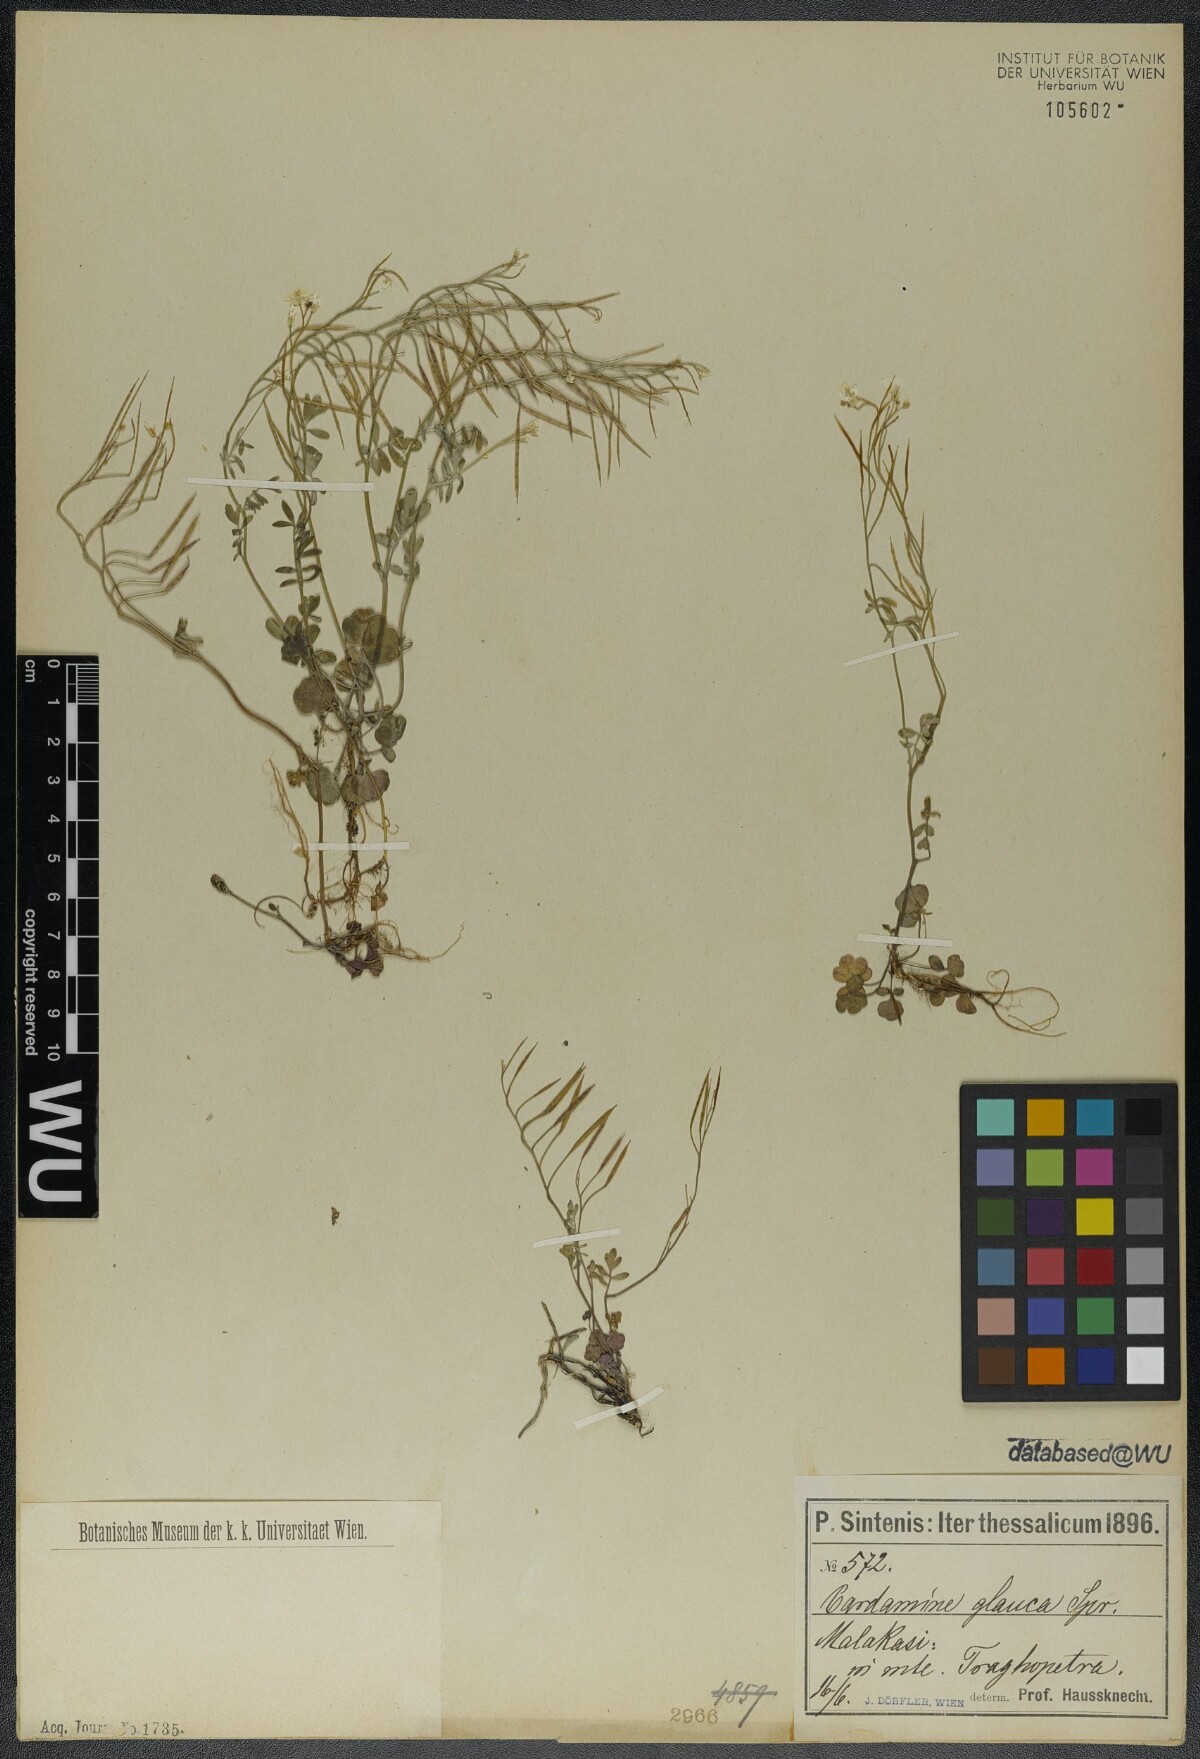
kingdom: Plantae
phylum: Tracheophyta
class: Magnoliopsida
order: Brassicales
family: Brassicaceae
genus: Cardamine
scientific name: Cardamine glauca
